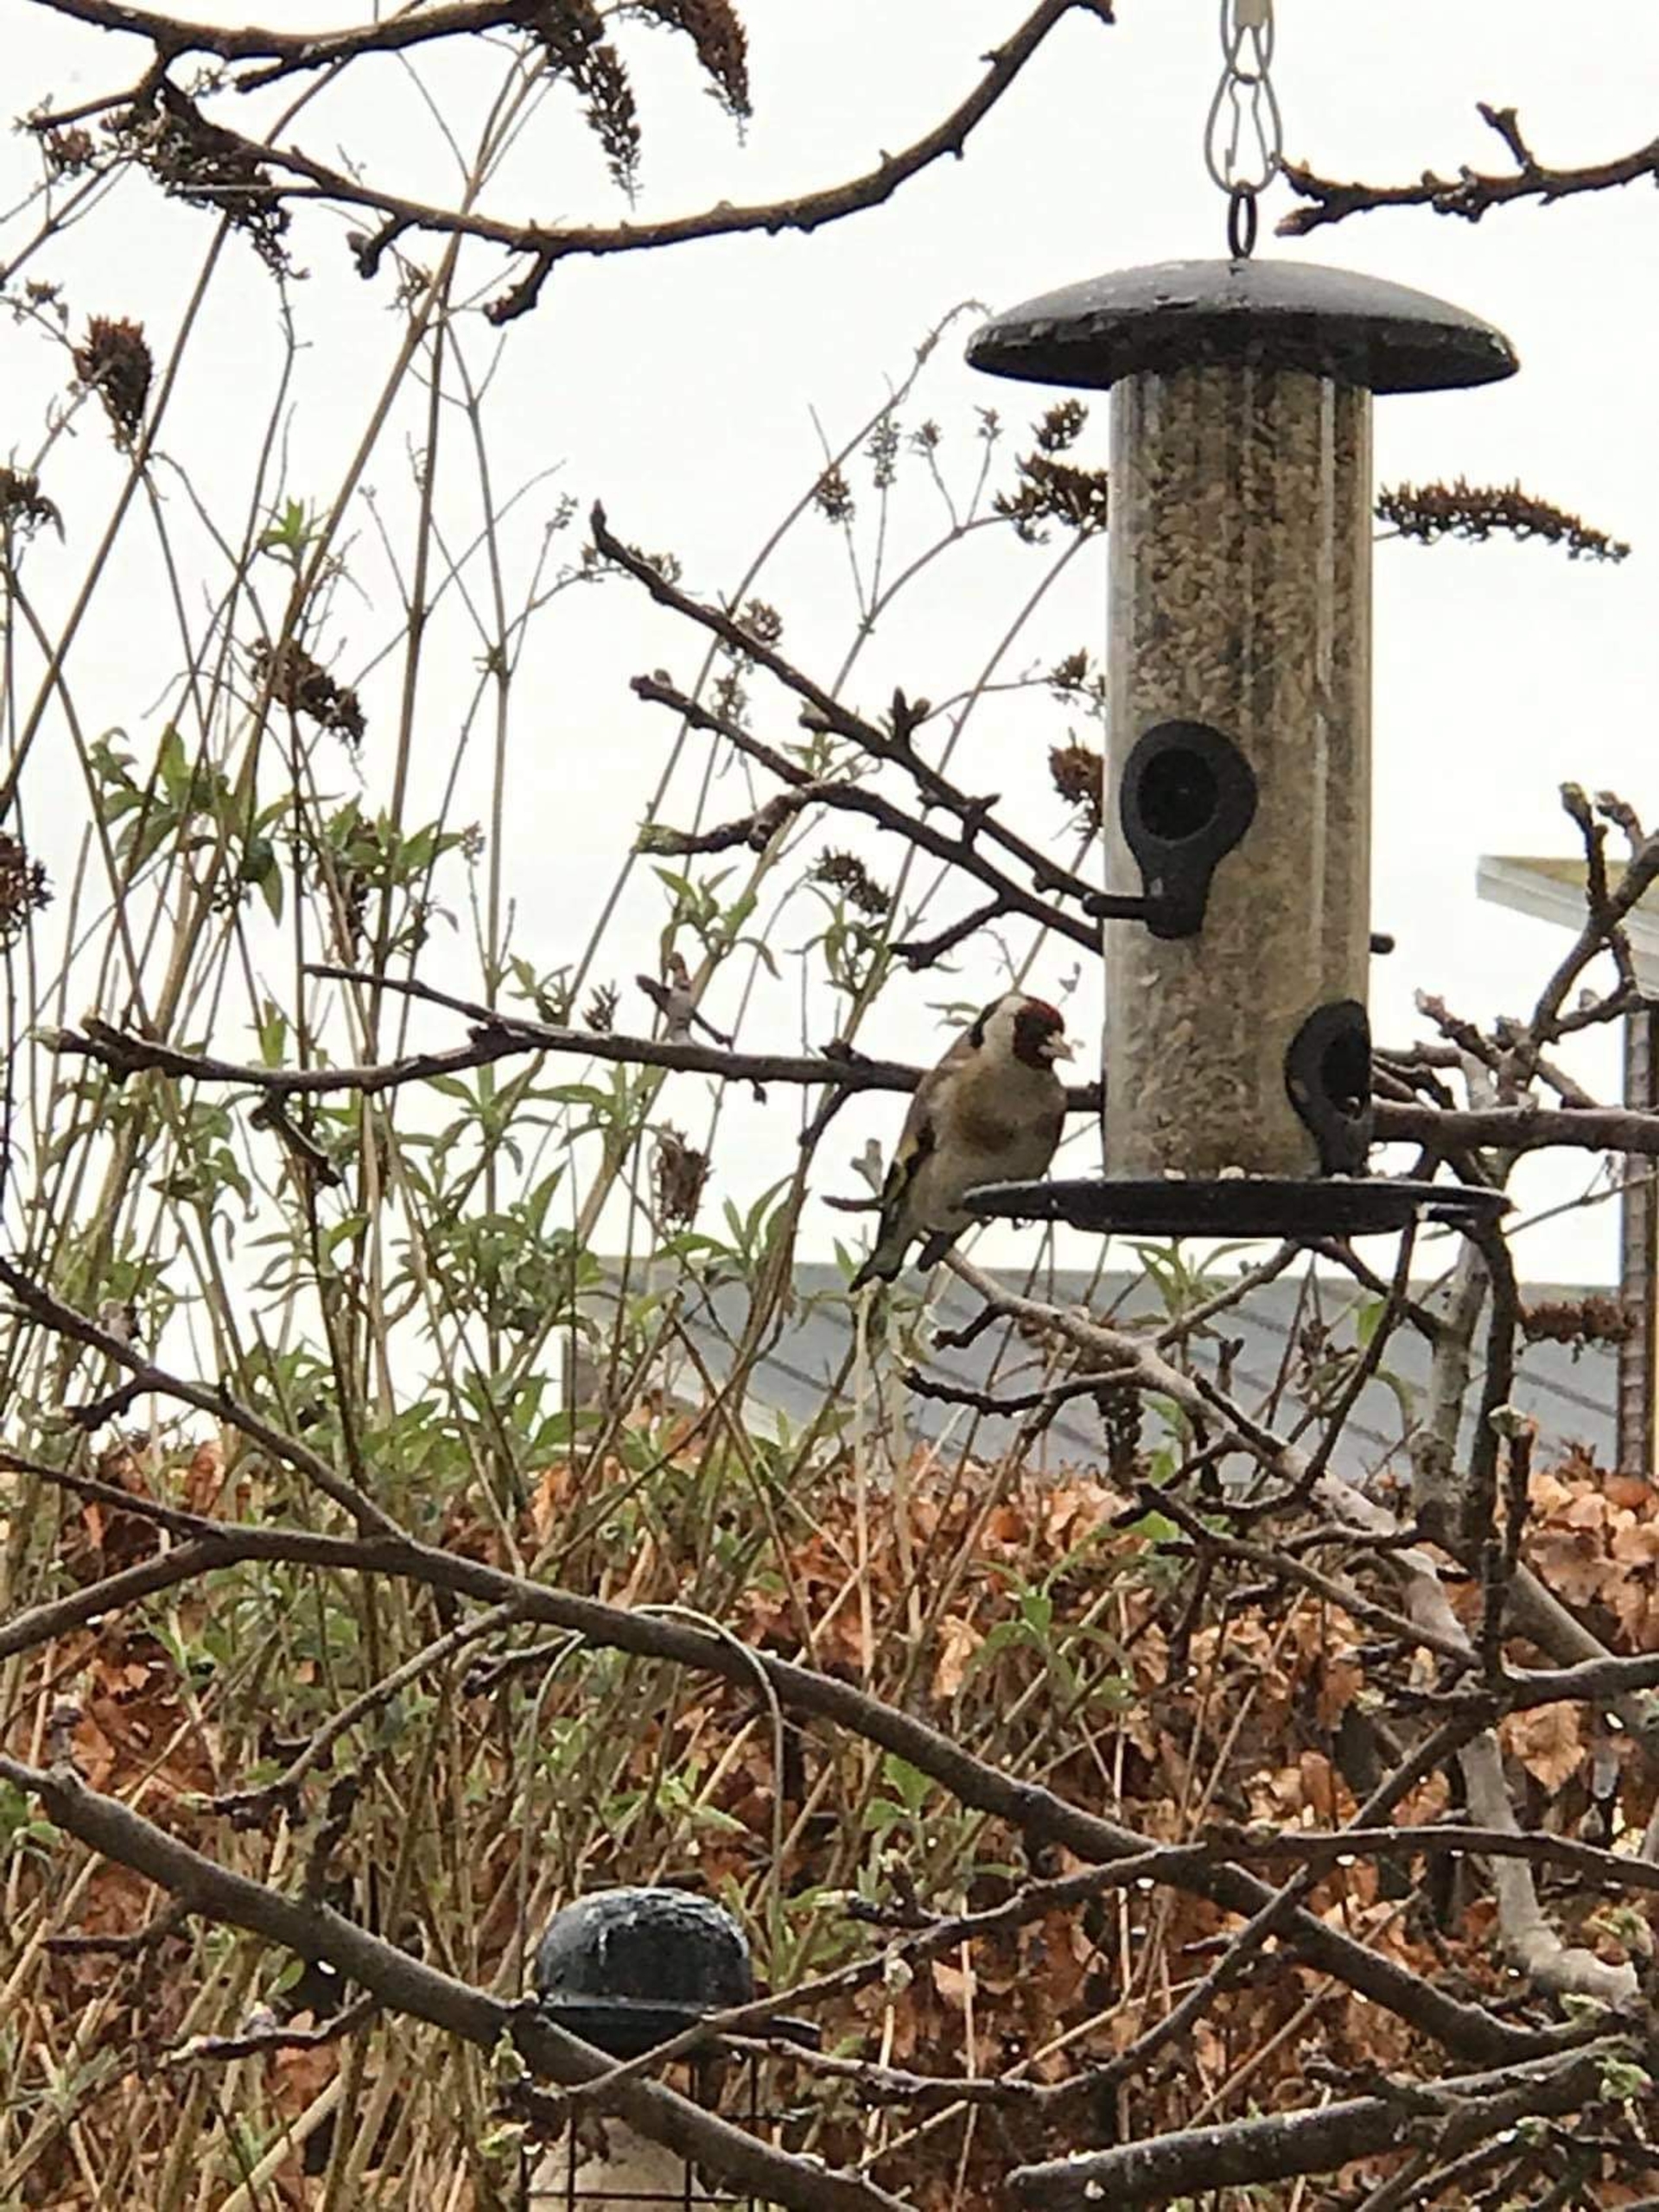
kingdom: Animalia
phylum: Chordata
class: Aves
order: Passeriformes
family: Fringillidae
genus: Carduelis
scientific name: Carduelis carduelis
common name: Stillits
